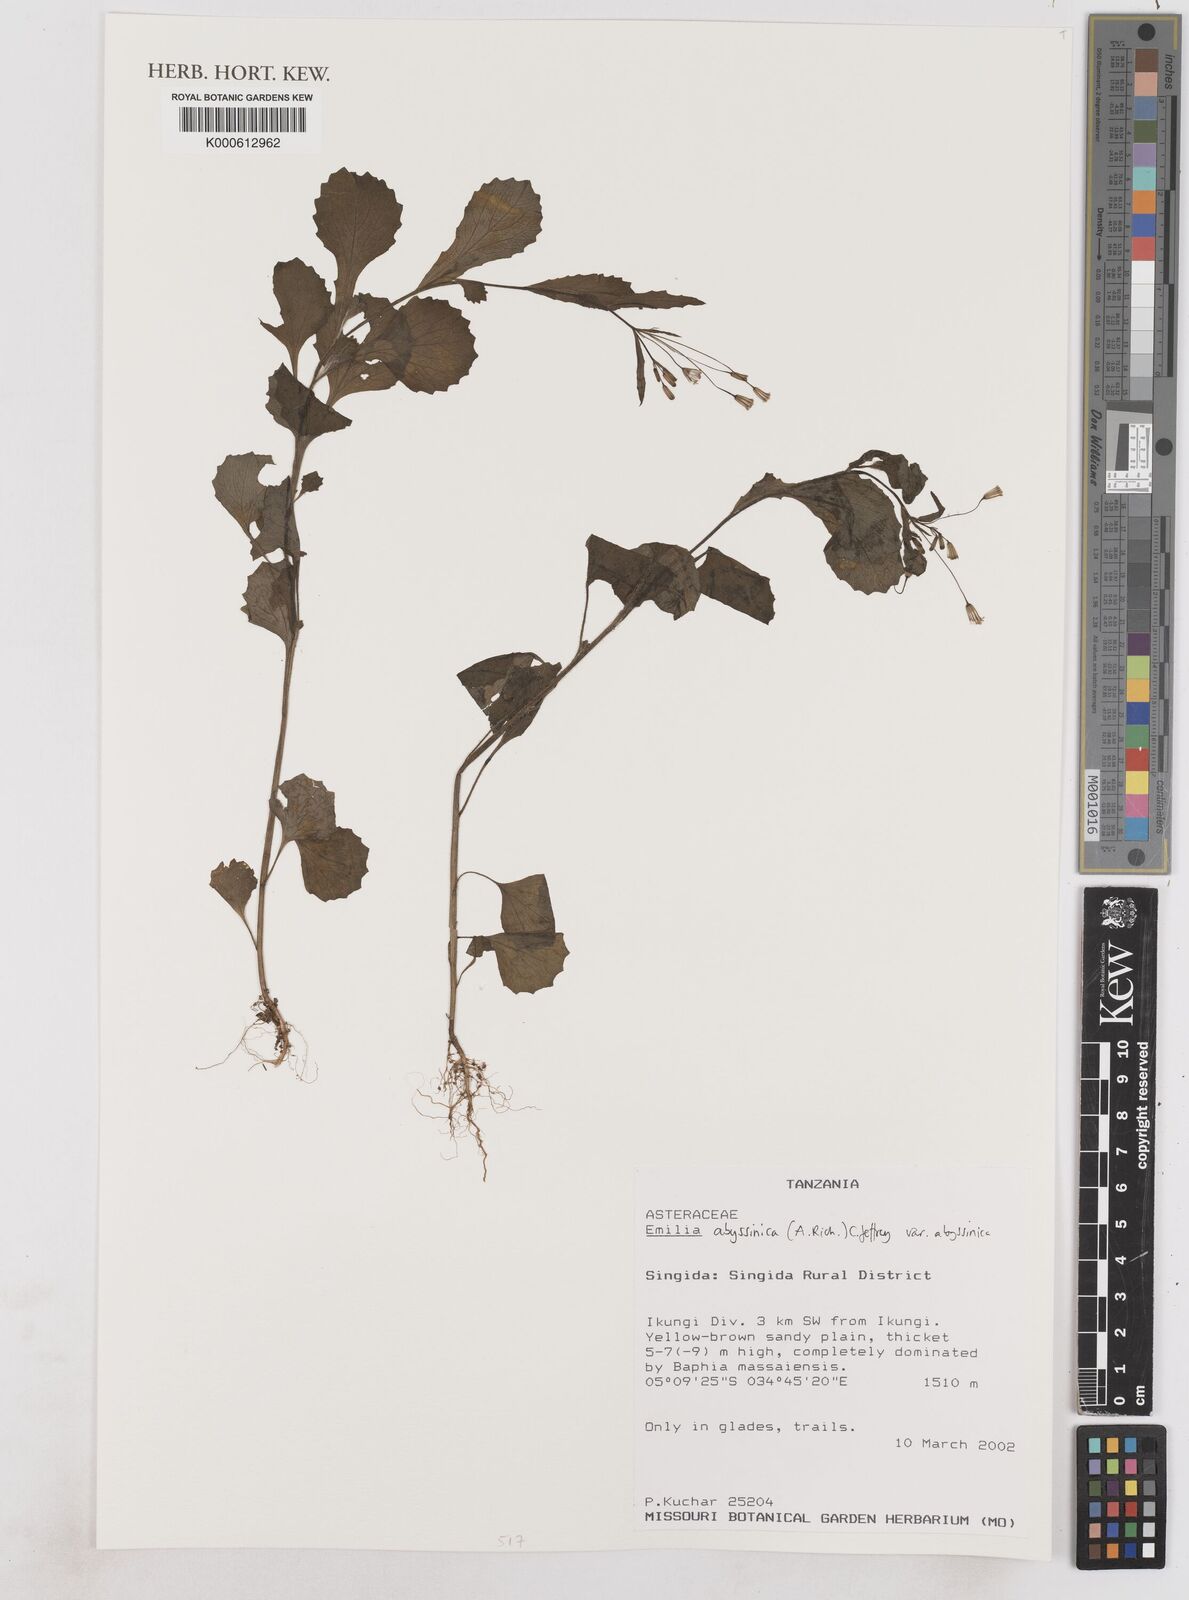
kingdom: Plantae
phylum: Tracheophyta
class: Magnoliopsida
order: Asterales
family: Asteraceae
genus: Emilia
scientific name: Emilia abyssinica
